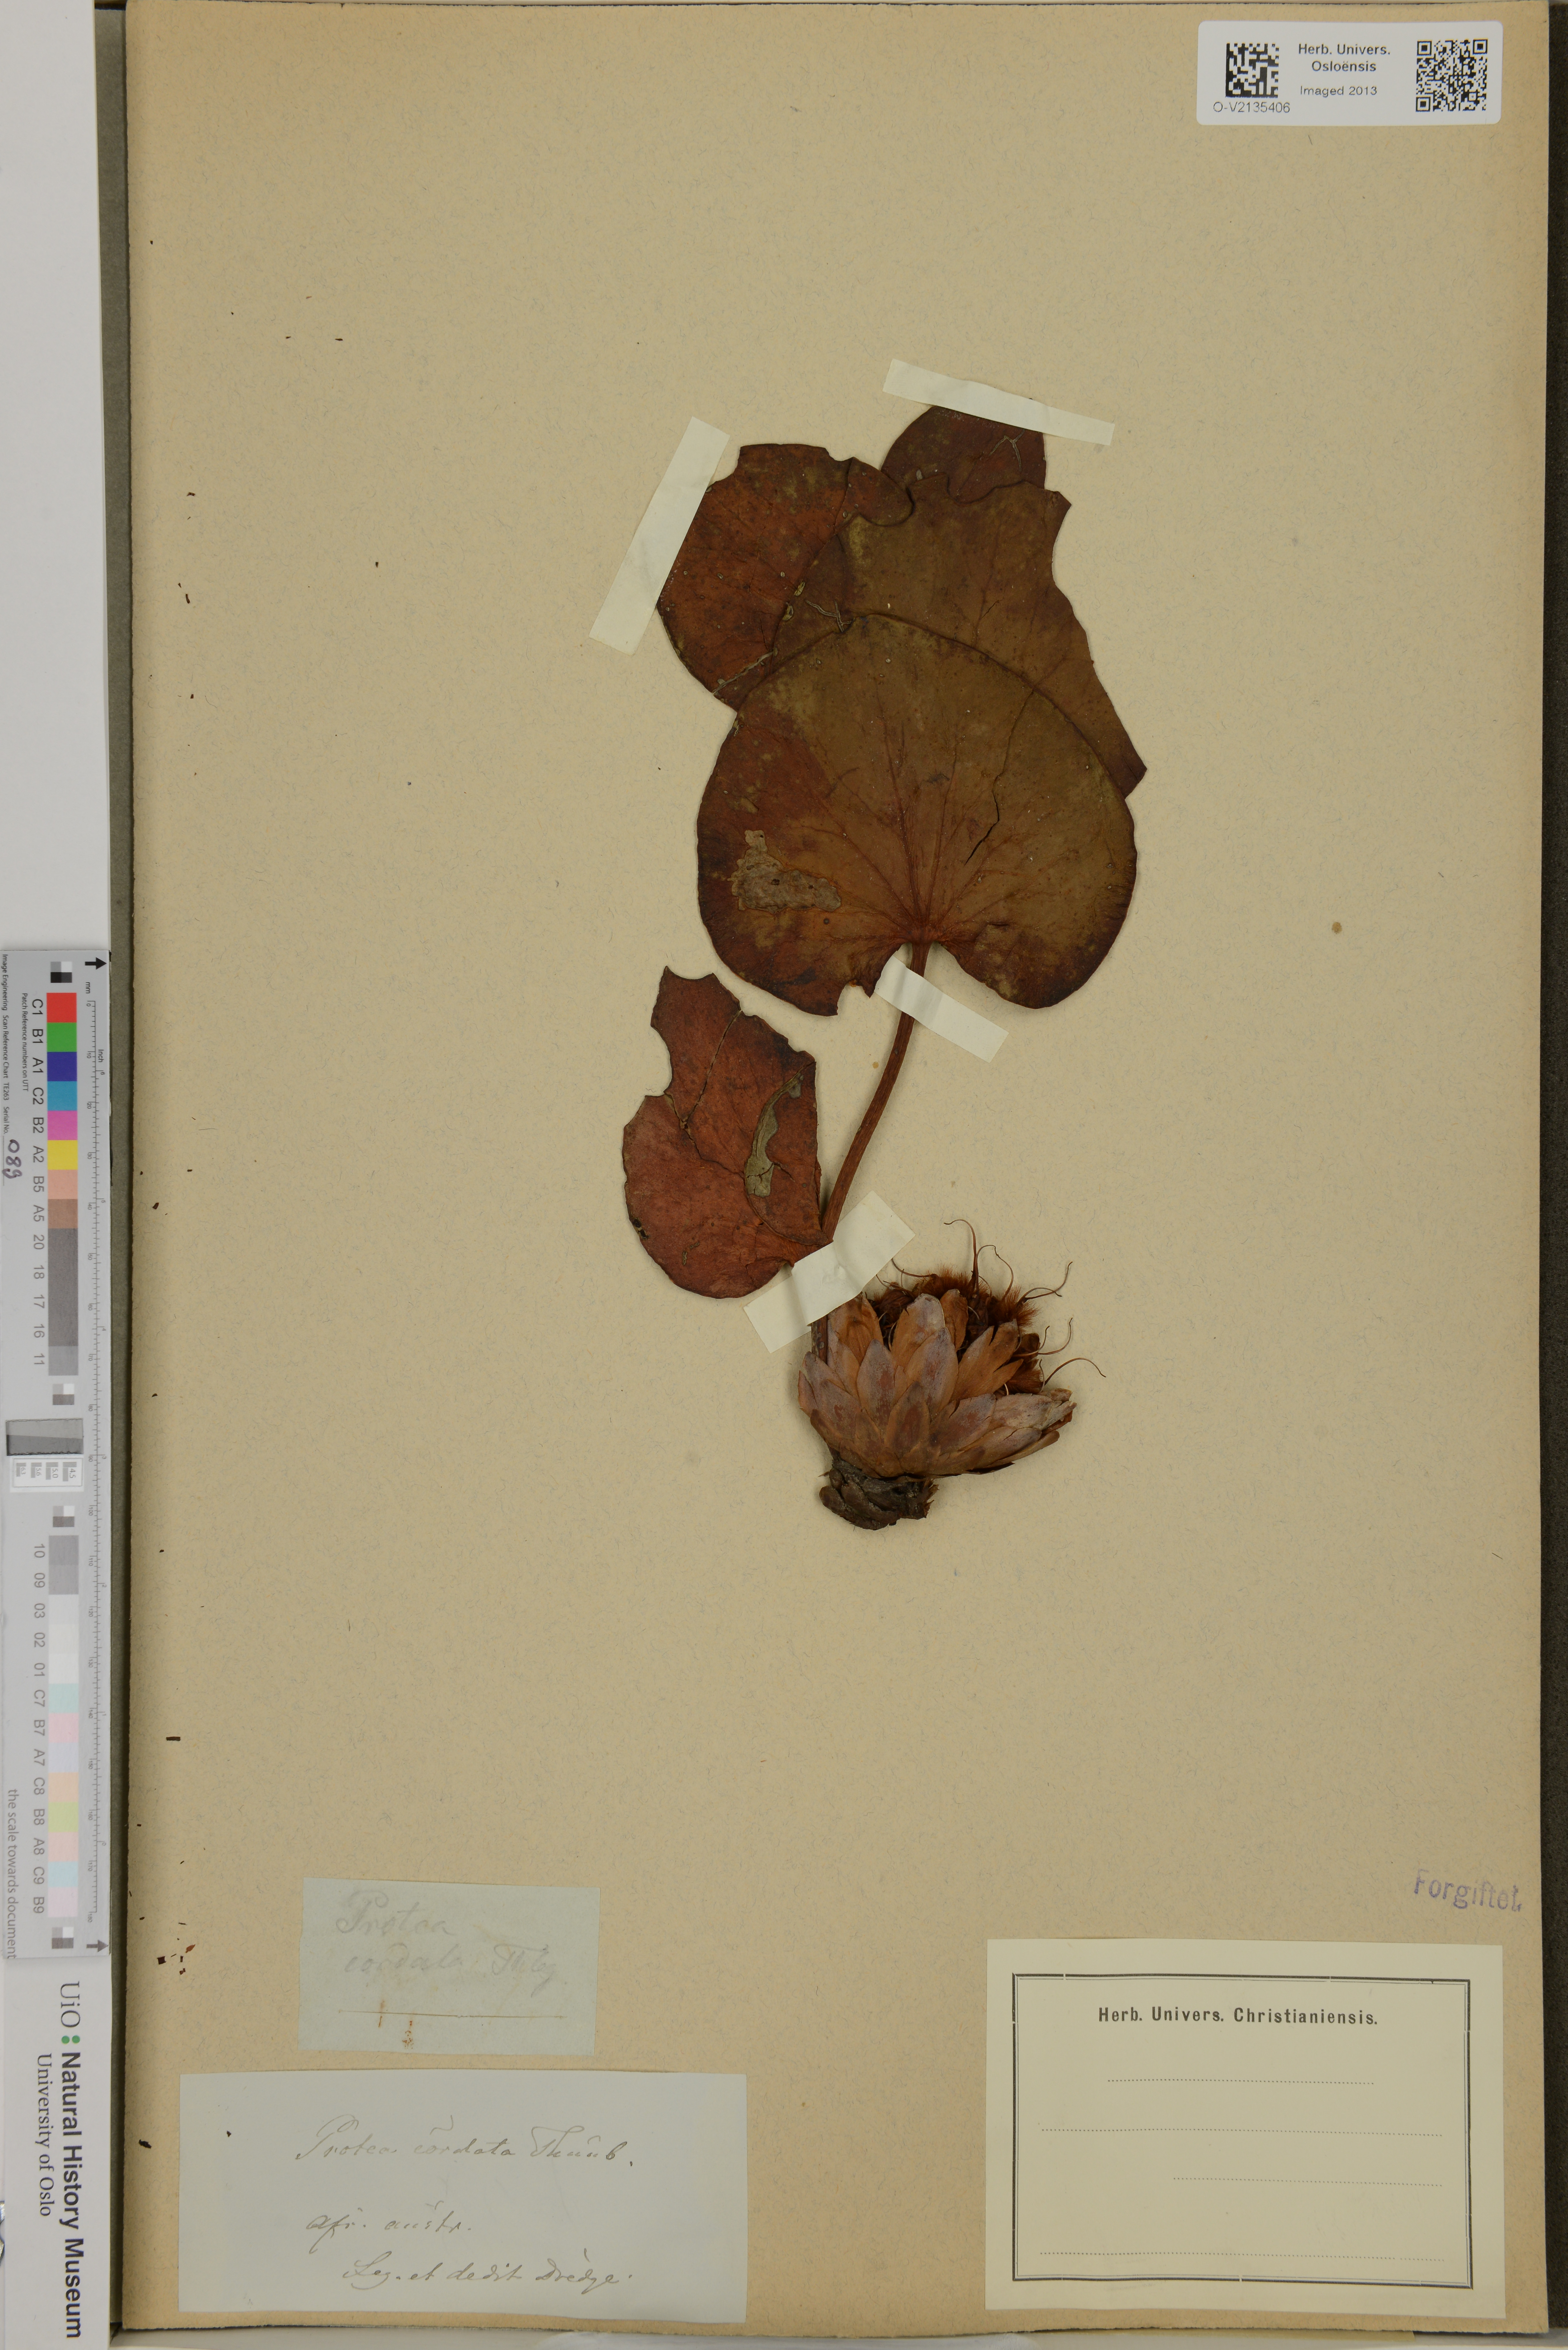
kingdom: Plantae
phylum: Tracheophyta
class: Magnoliopsida
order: Proteales
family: Proteaceae
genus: Protea
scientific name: Protea cordata
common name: Heart-leaf sugarbush
